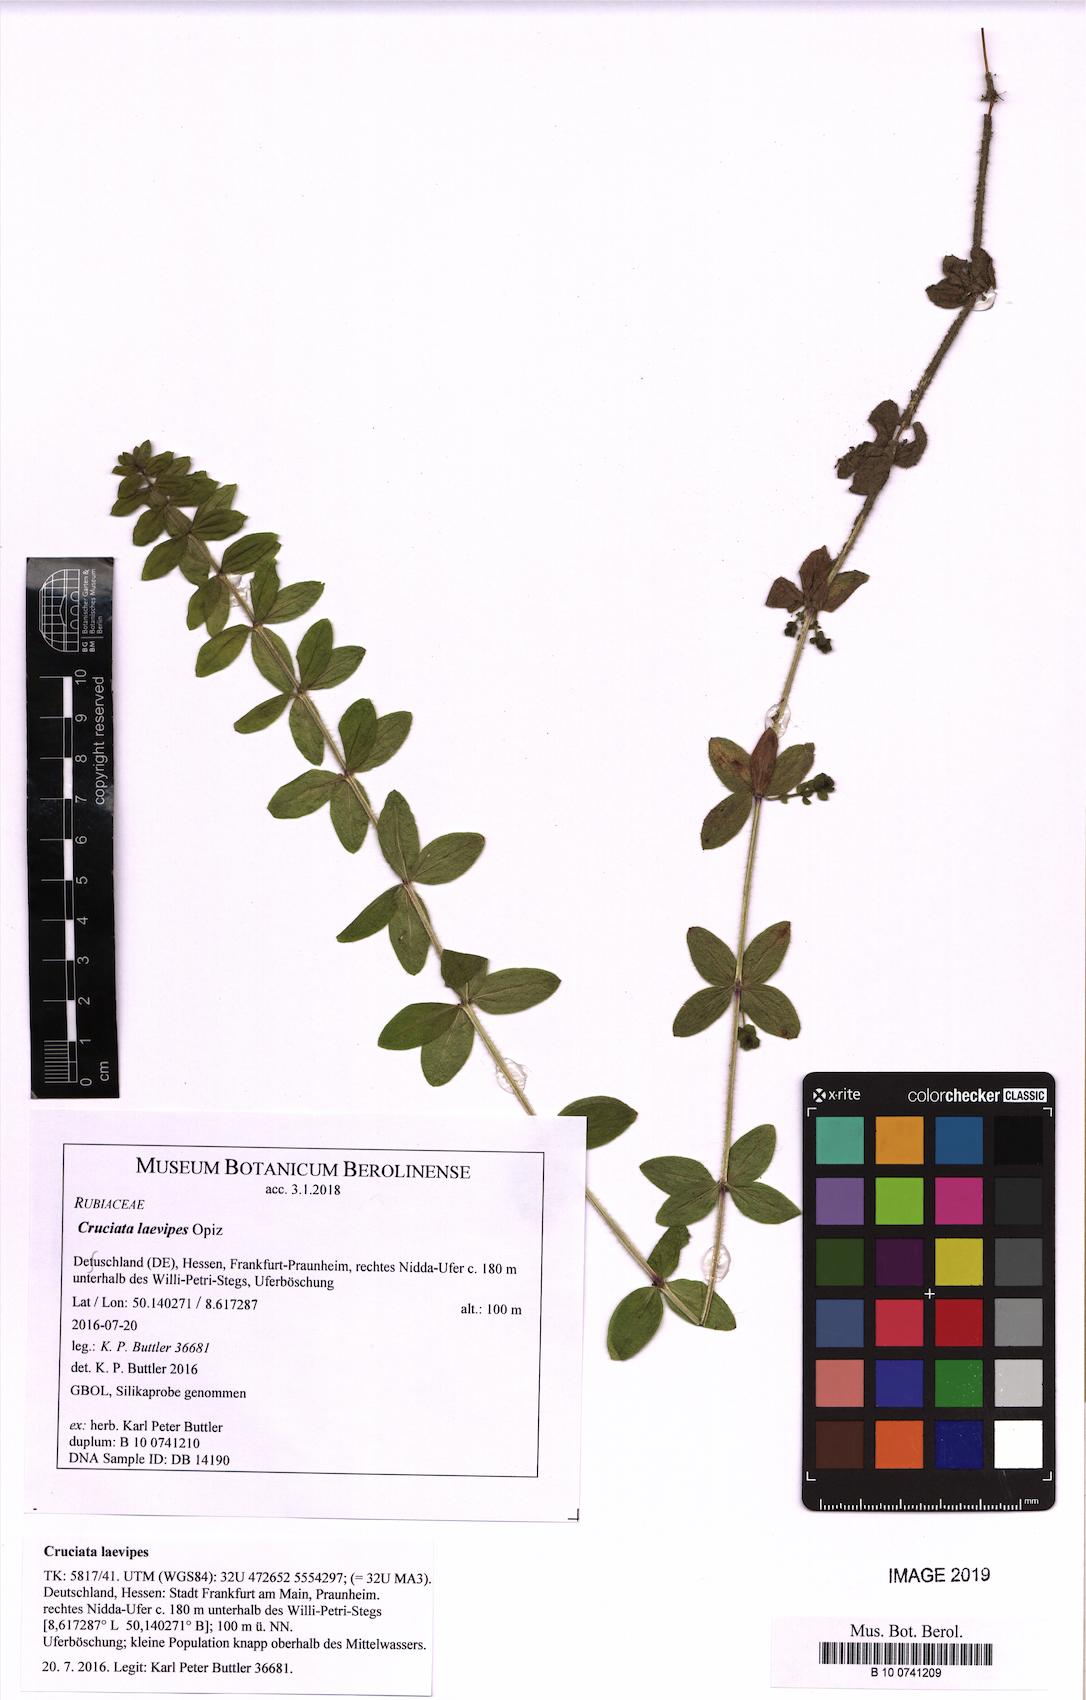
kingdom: Plantae
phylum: Tracheophyta
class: Magnoliopsida
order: Gentianales
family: Rubiaceae
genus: Cruciata
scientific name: Cruciata laevipes
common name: Crosswort
